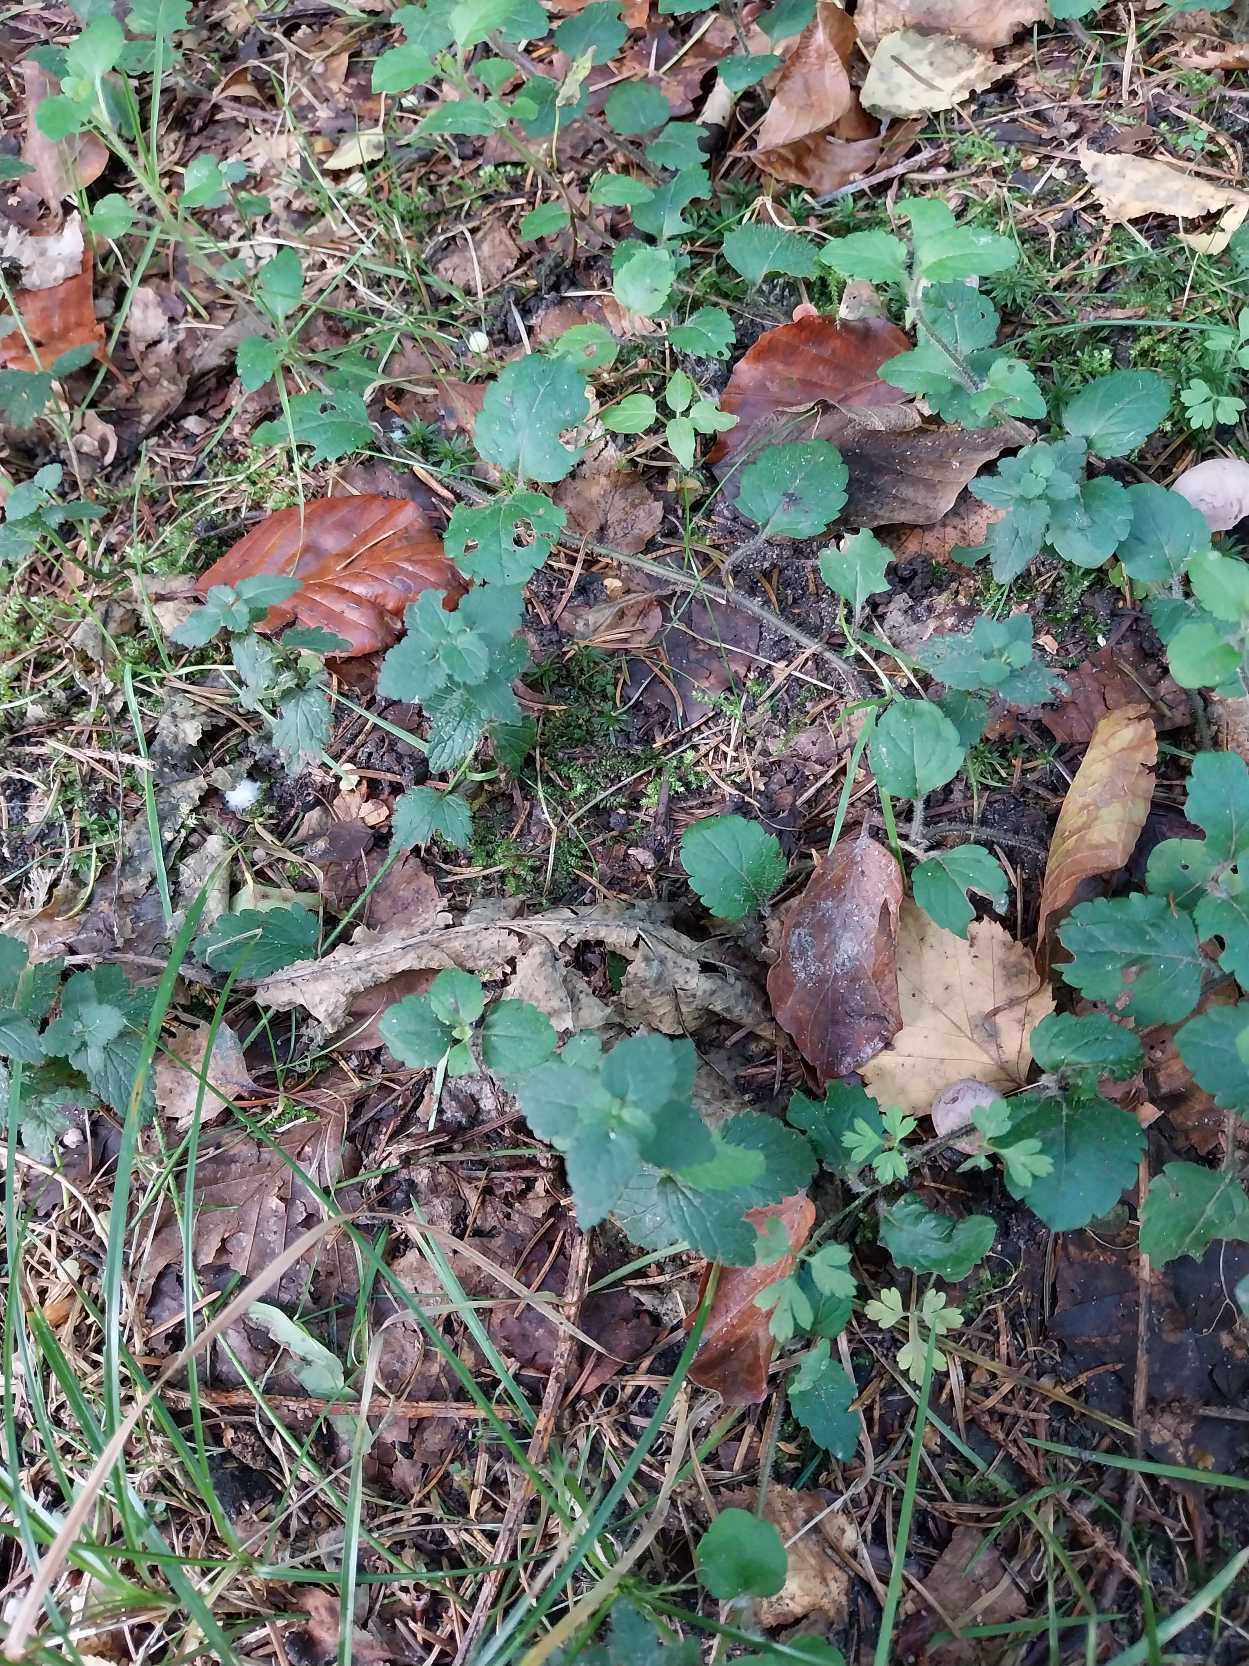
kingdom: Plantae
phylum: Tracheophyta
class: Magnoliopsida
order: Lamiales
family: Plantaginaceae
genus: Veronica
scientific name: Veronica montana
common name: Bjerg-ærenpris
